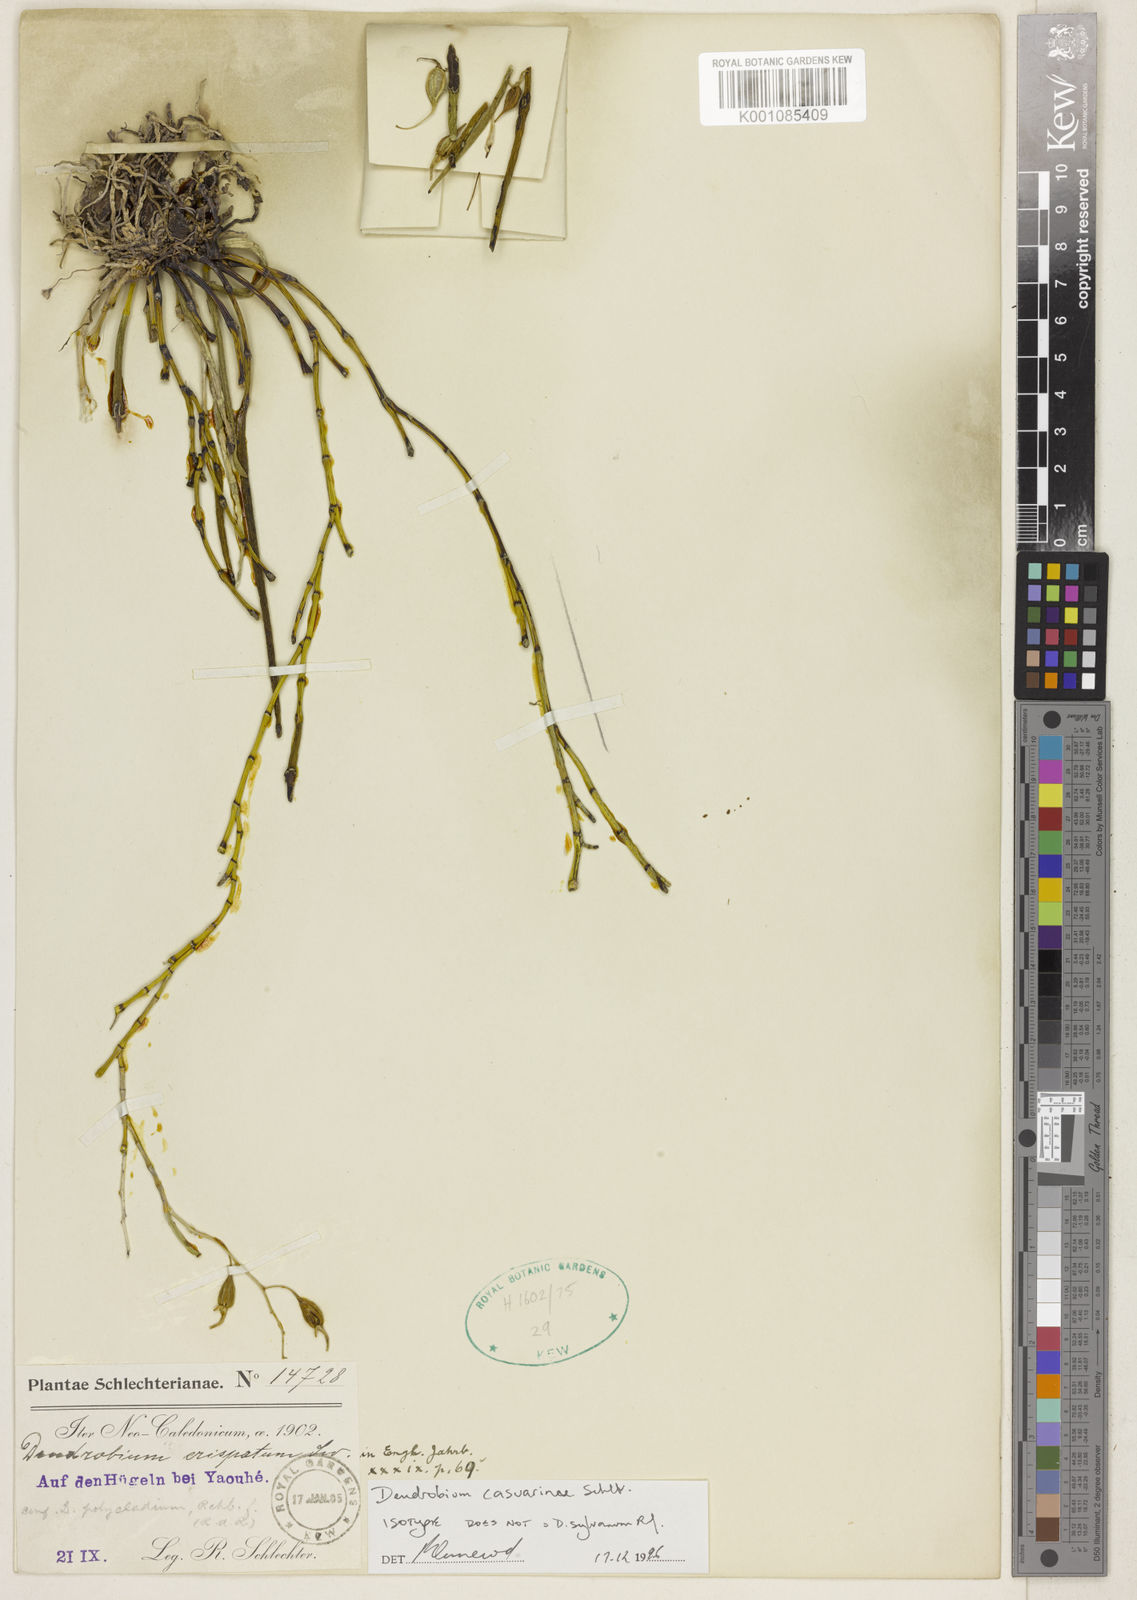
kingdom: Plantae
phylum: Tracheophyta
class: Liliopsida
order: Asparagales
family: Orchidaceae
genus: Dendrobium
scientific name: Dendrobium sylvanum
